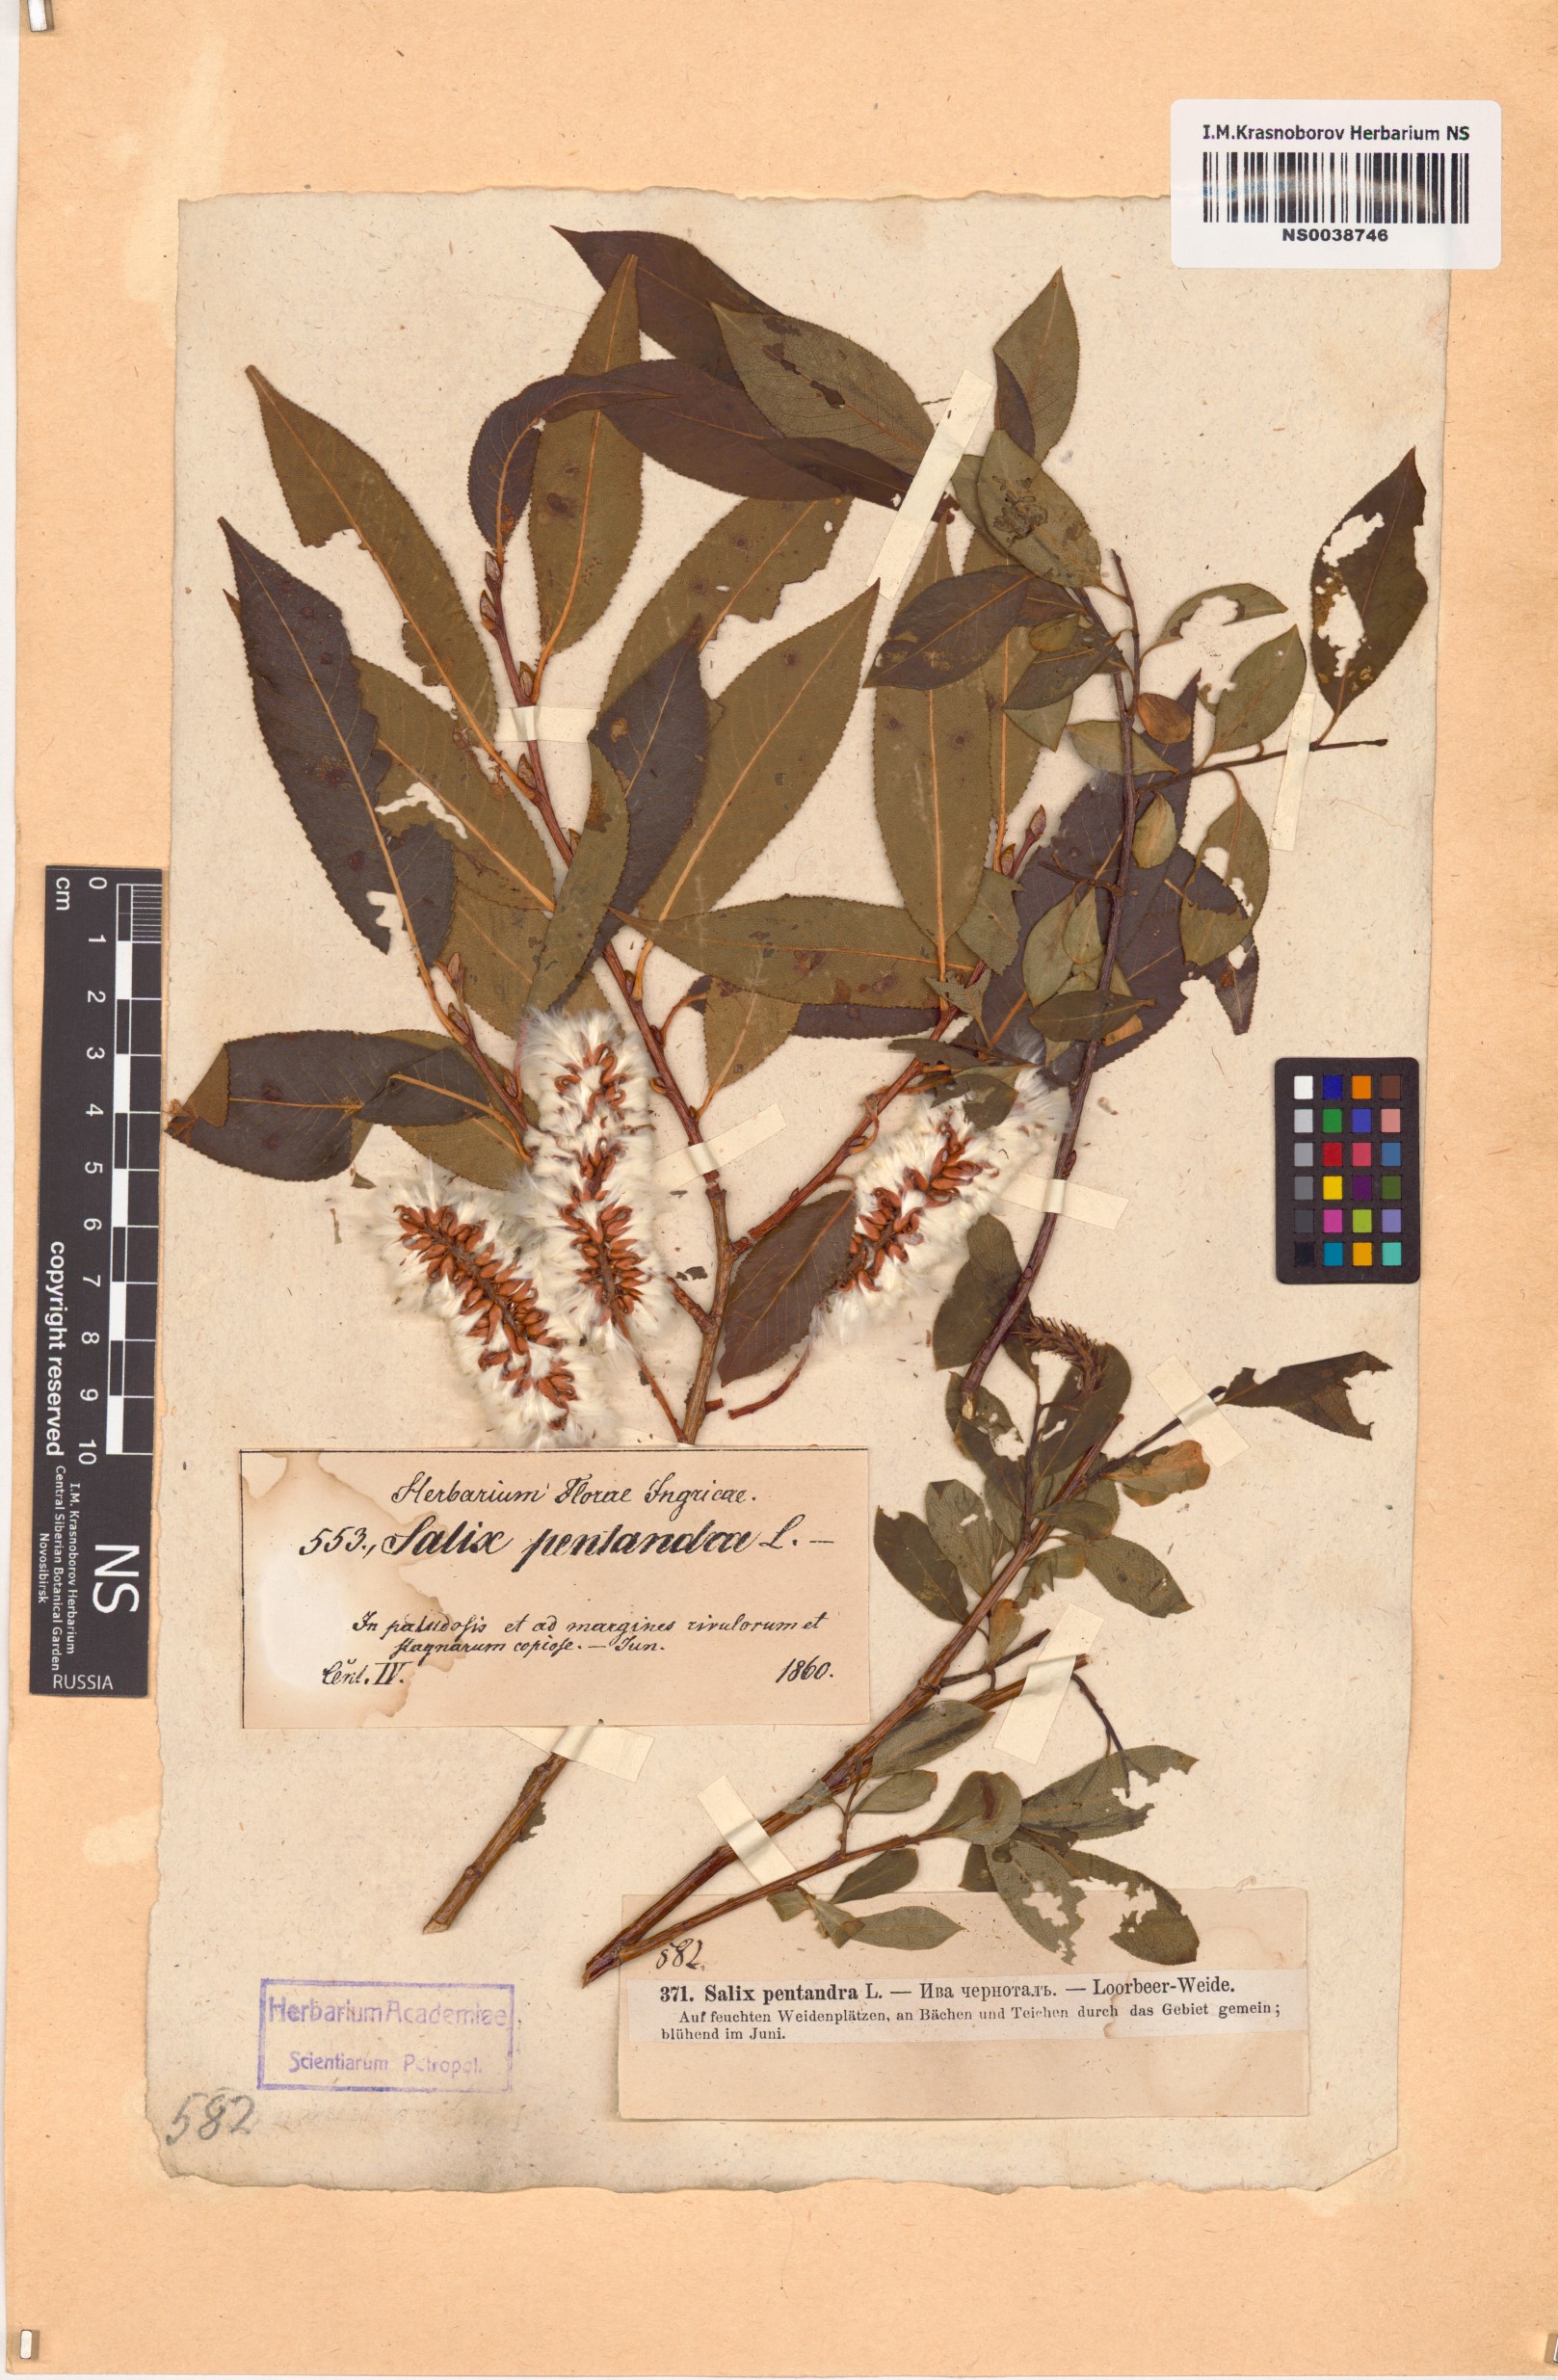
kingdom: Plantae
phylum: Tracheophyta
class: Magnoliopsida
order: Malpighiales
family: Salicaceae
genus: Salix
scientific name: Salix pentandra
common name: Bay willow
